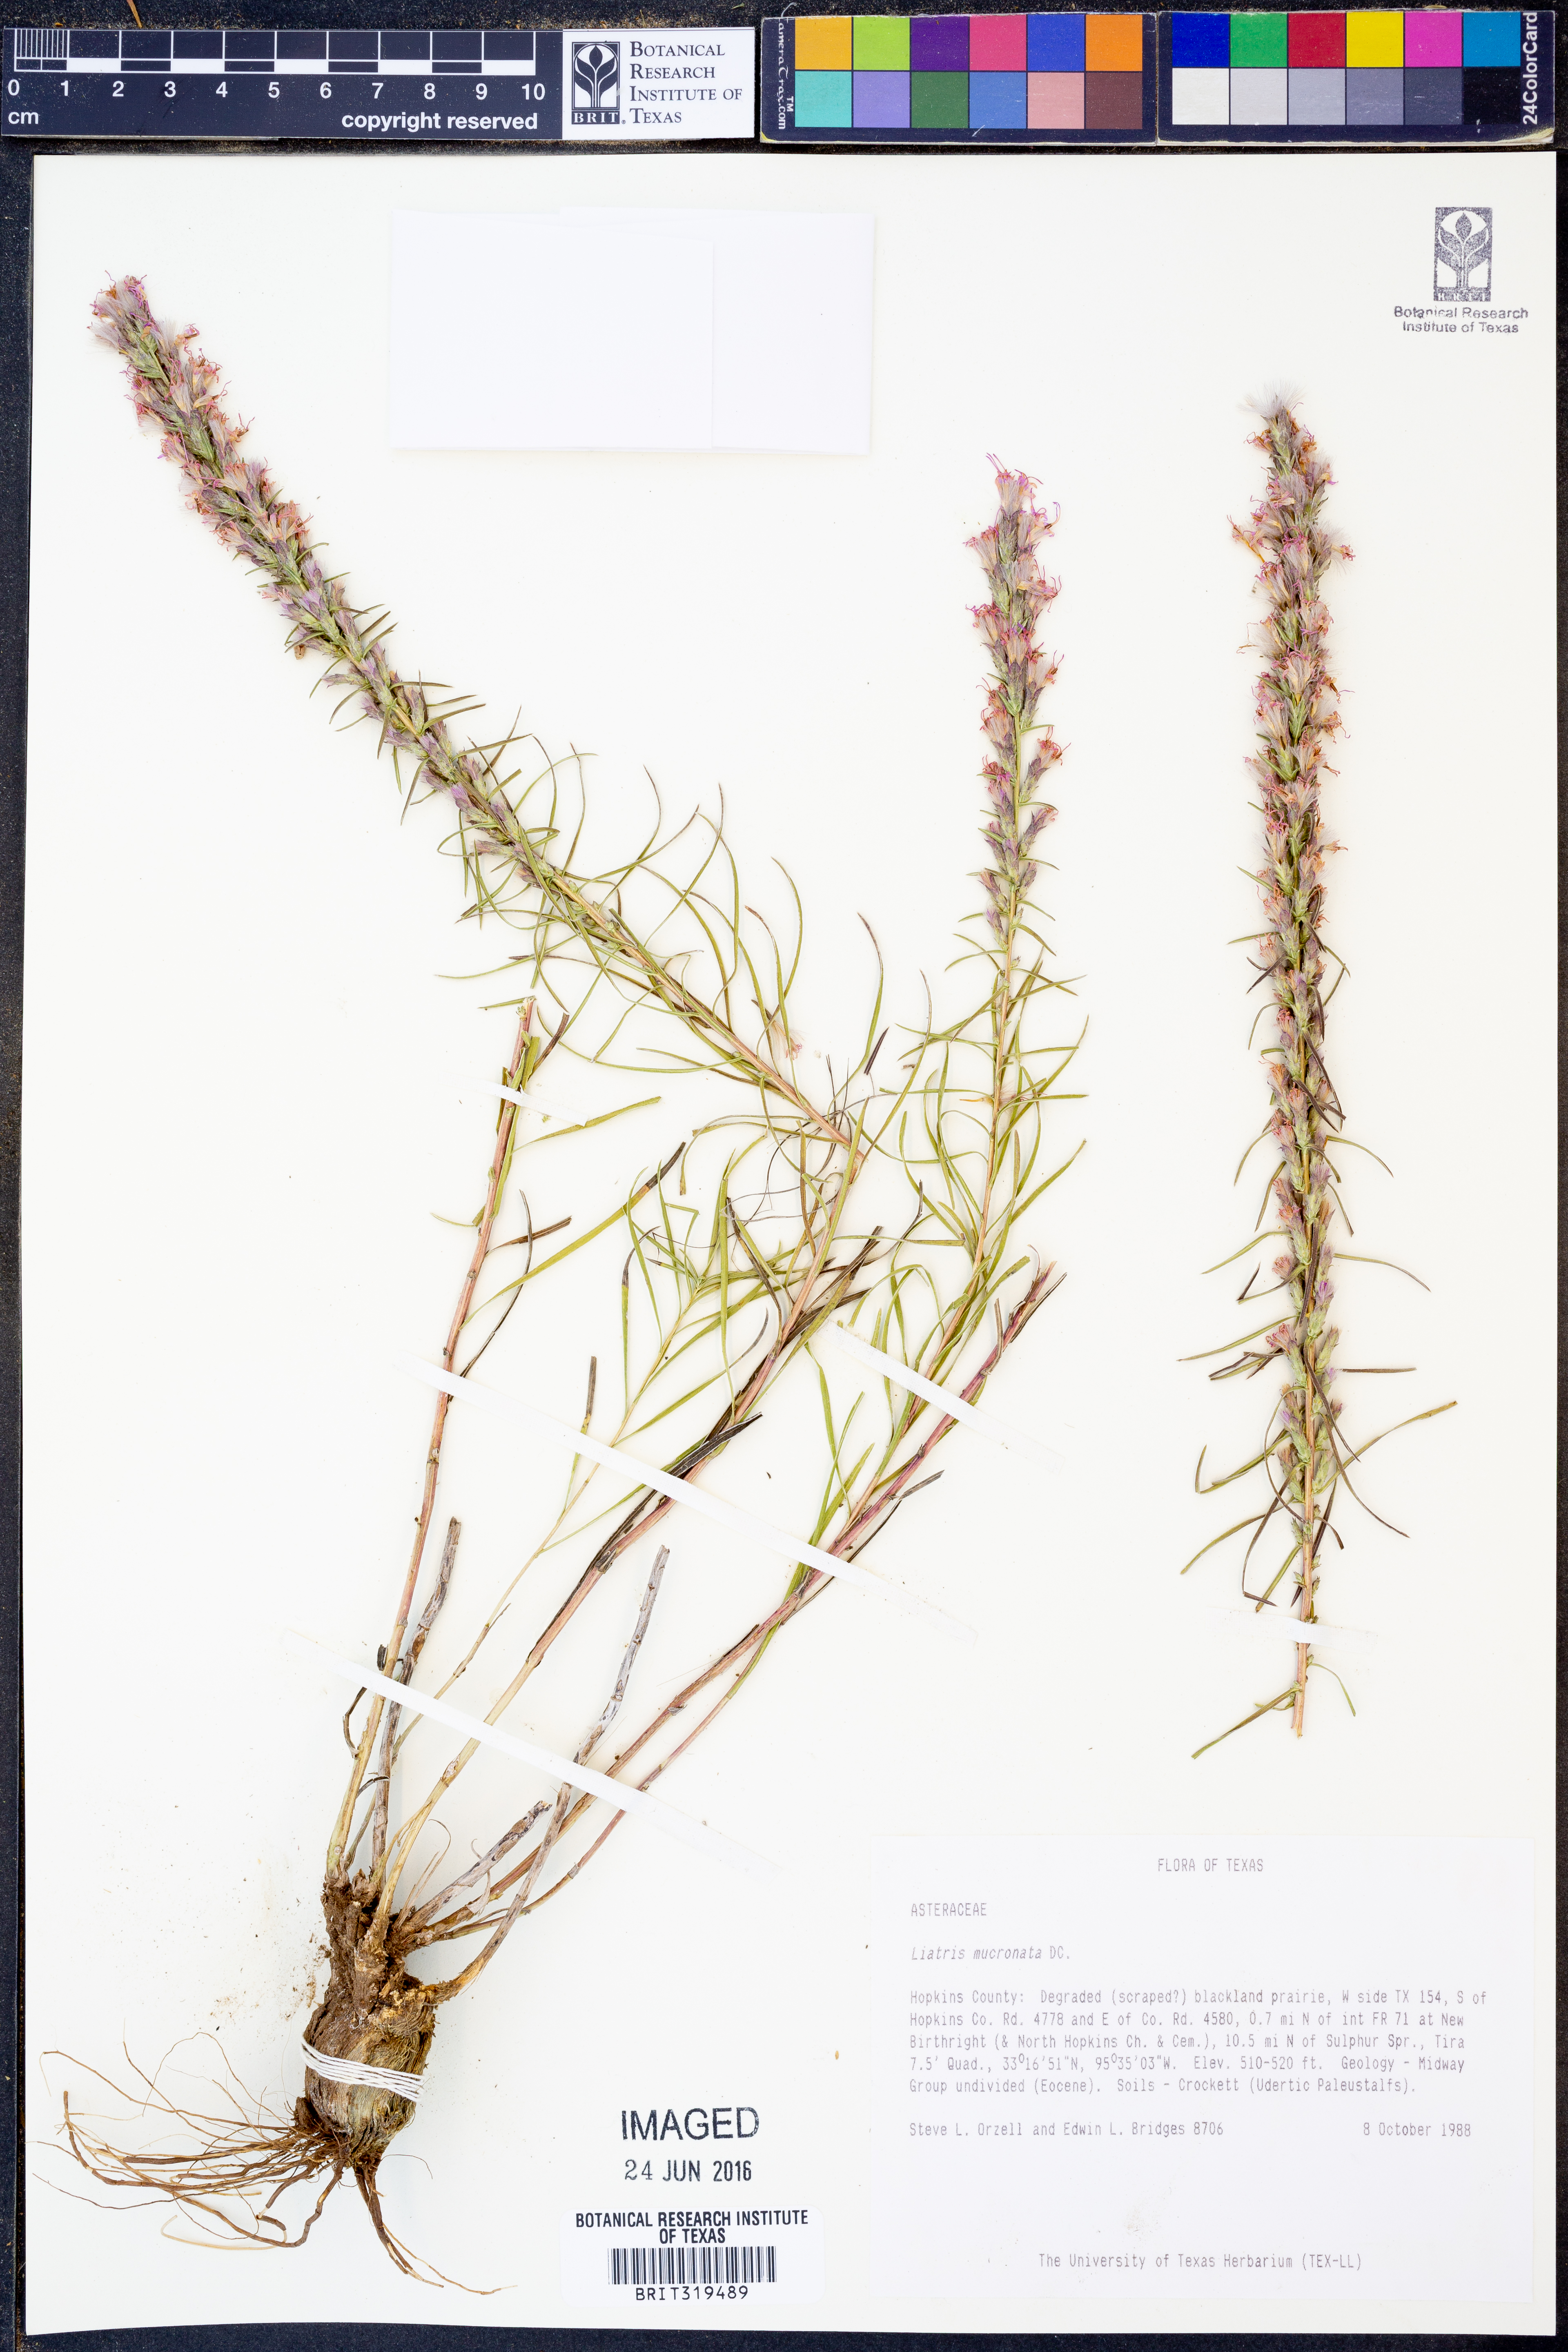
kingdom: Plantae
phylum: Tracheophyta
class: Magnoliopsida
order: Asterales
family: Asteraceae
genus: Liatris
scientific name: Liatris mucronata
